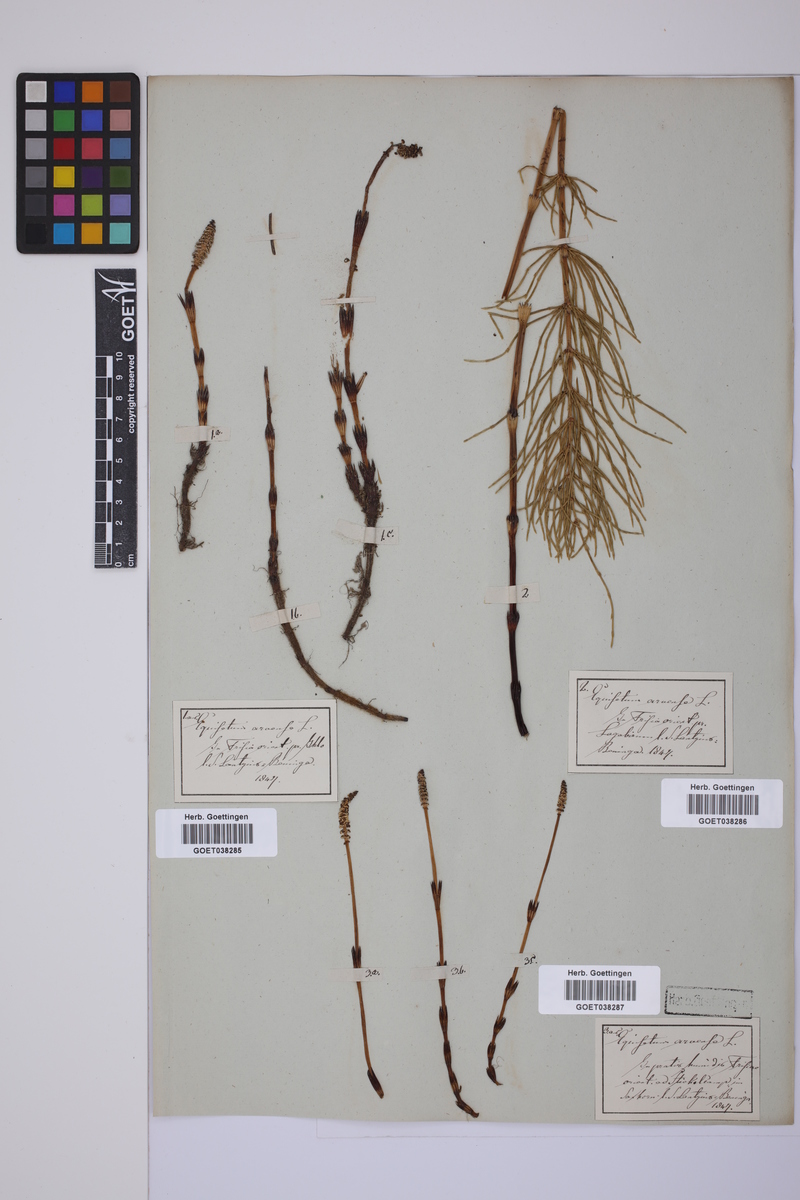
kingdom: Plantae
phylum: Tracheophyta
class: Polypodiopsida
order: Equisetales
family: Equisetaceae
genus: Equisetum
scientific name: Equisetum arvense
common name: Field horsetail
